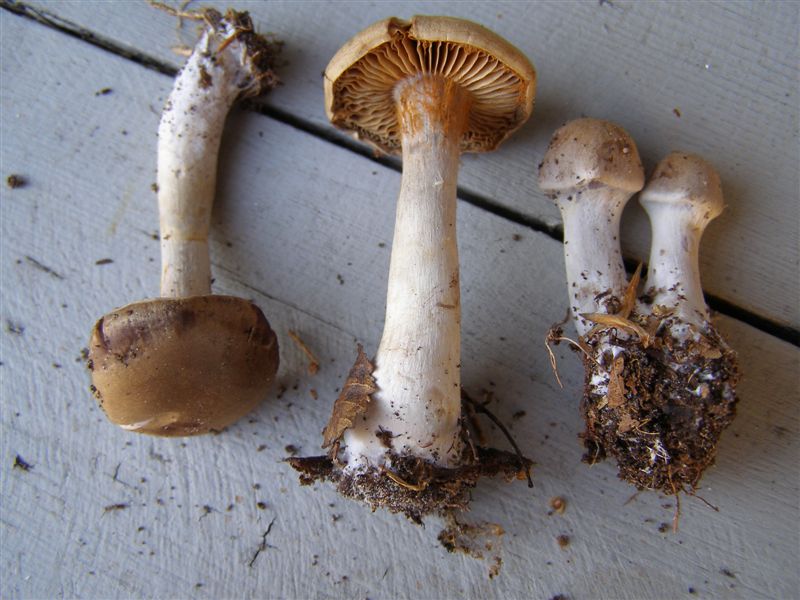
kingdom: Fungi
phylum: Basidiomycota
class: Agaricomycetes
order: Agaricales
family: Cortinariaceae
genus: Cortinarius
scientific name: Cortinarius lucorum
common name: aspe-slørhat
